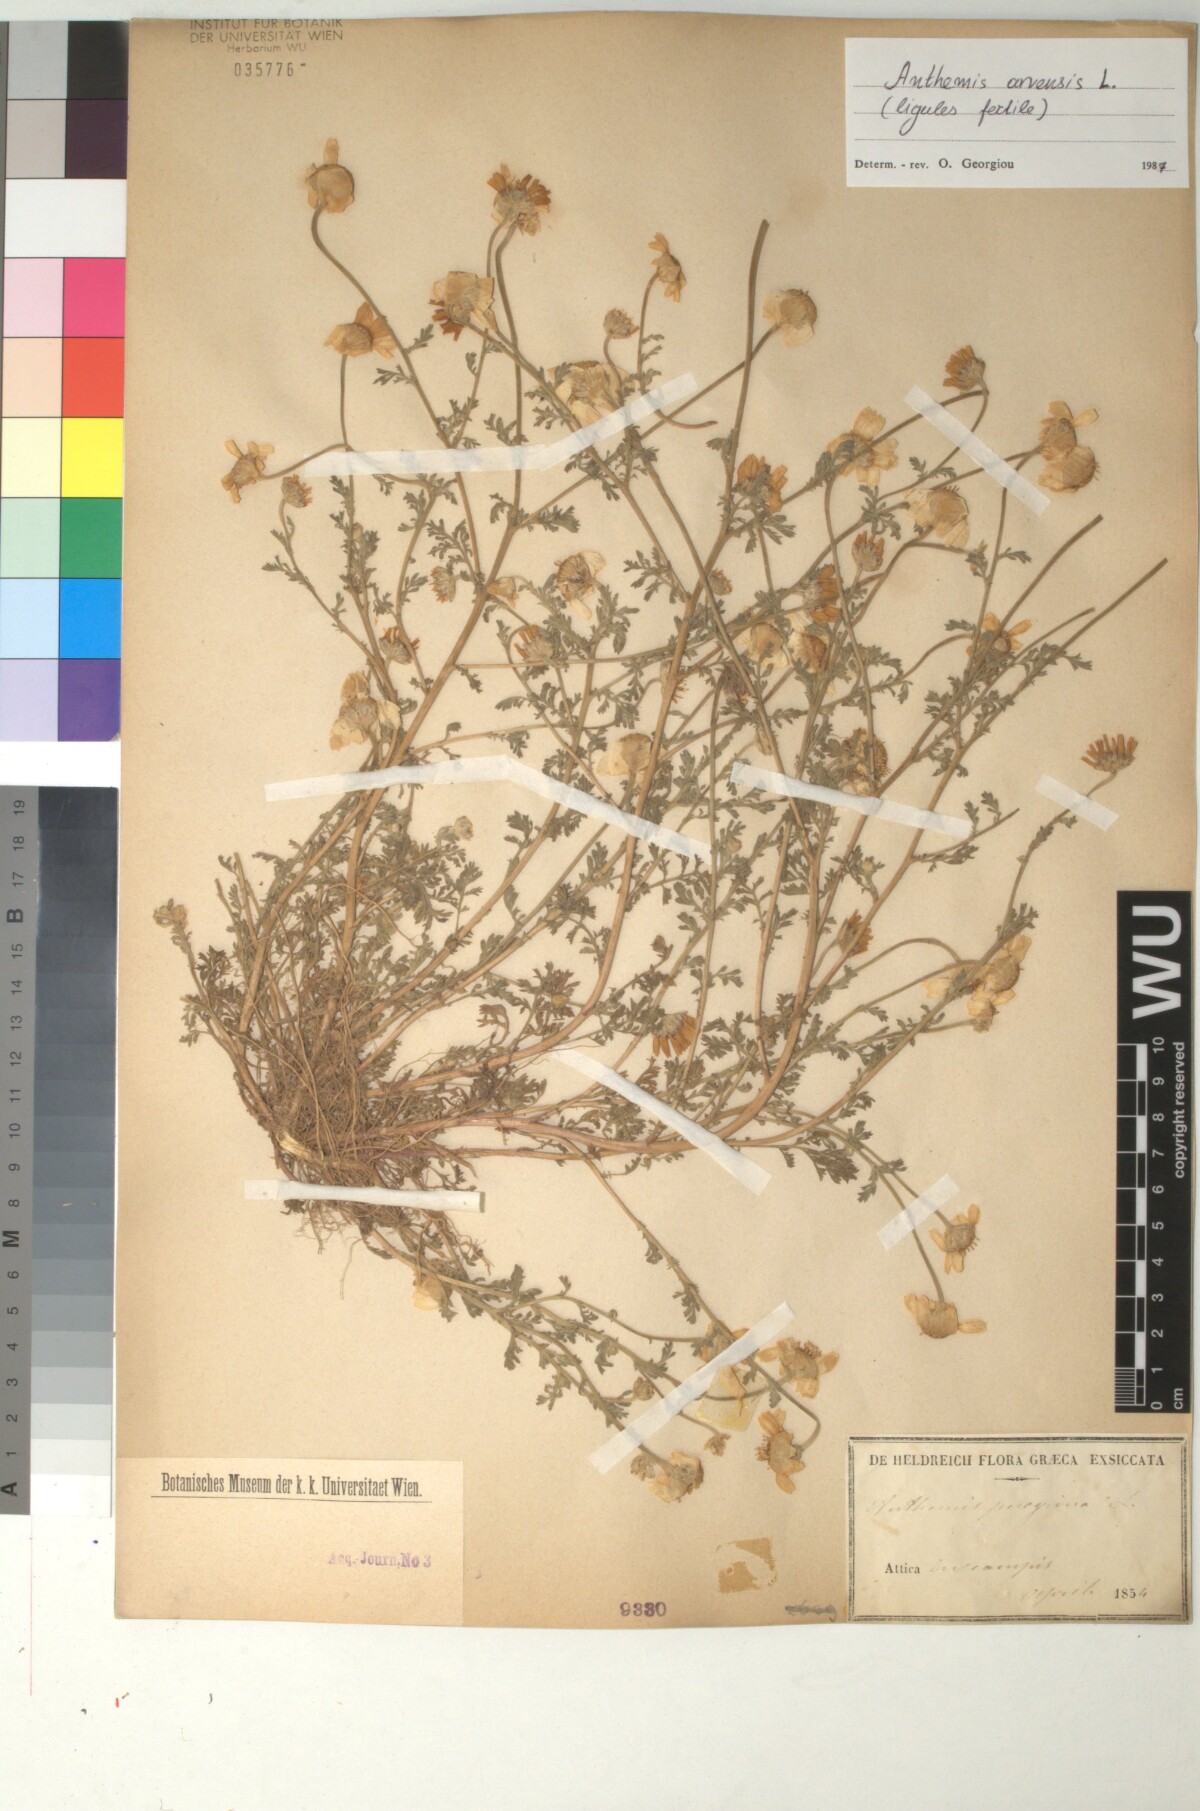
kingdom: Plantae
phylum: Tracheophyta
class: Magnoliopsida
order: Asterales
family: Asteraceae
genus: Anthemis
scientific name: Anthemis arvensis
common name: Corn chamomile
